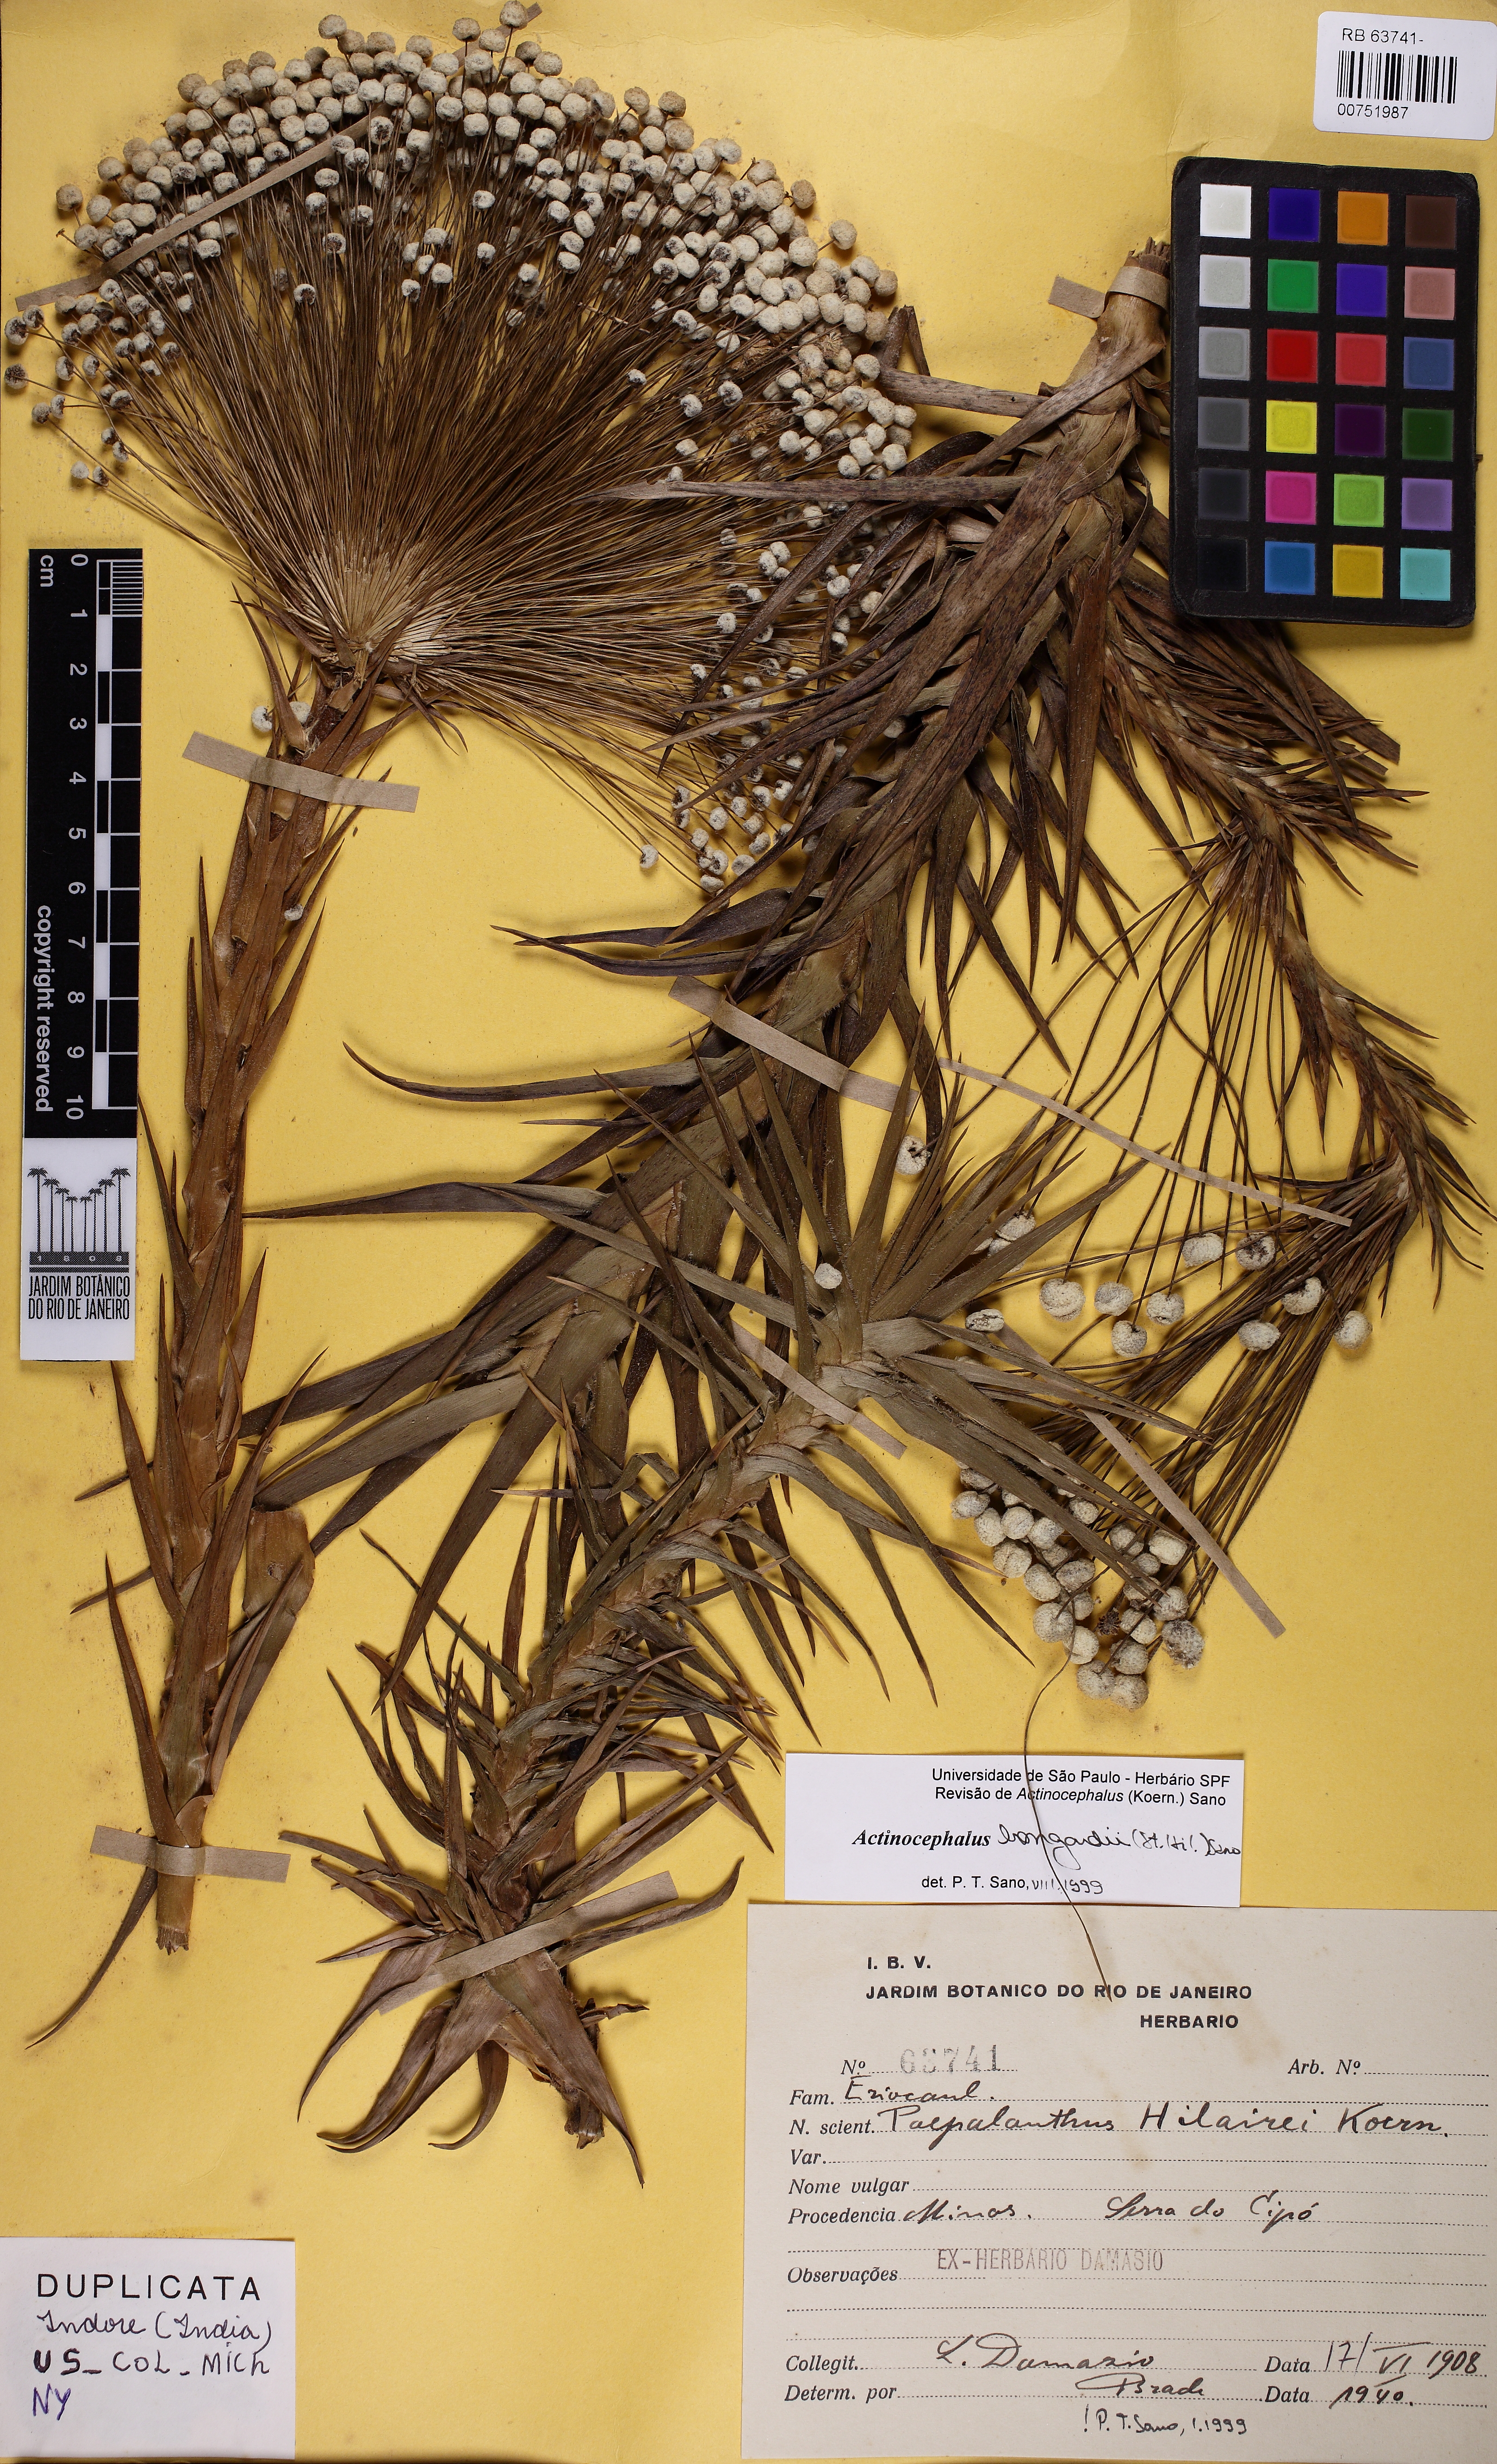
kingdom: Plantae
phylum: Tracheophyta
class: Liliopsida
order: Poales
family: Eriocaulaceae
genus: Paepalanthus
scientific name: Paepalanthus hilairei
